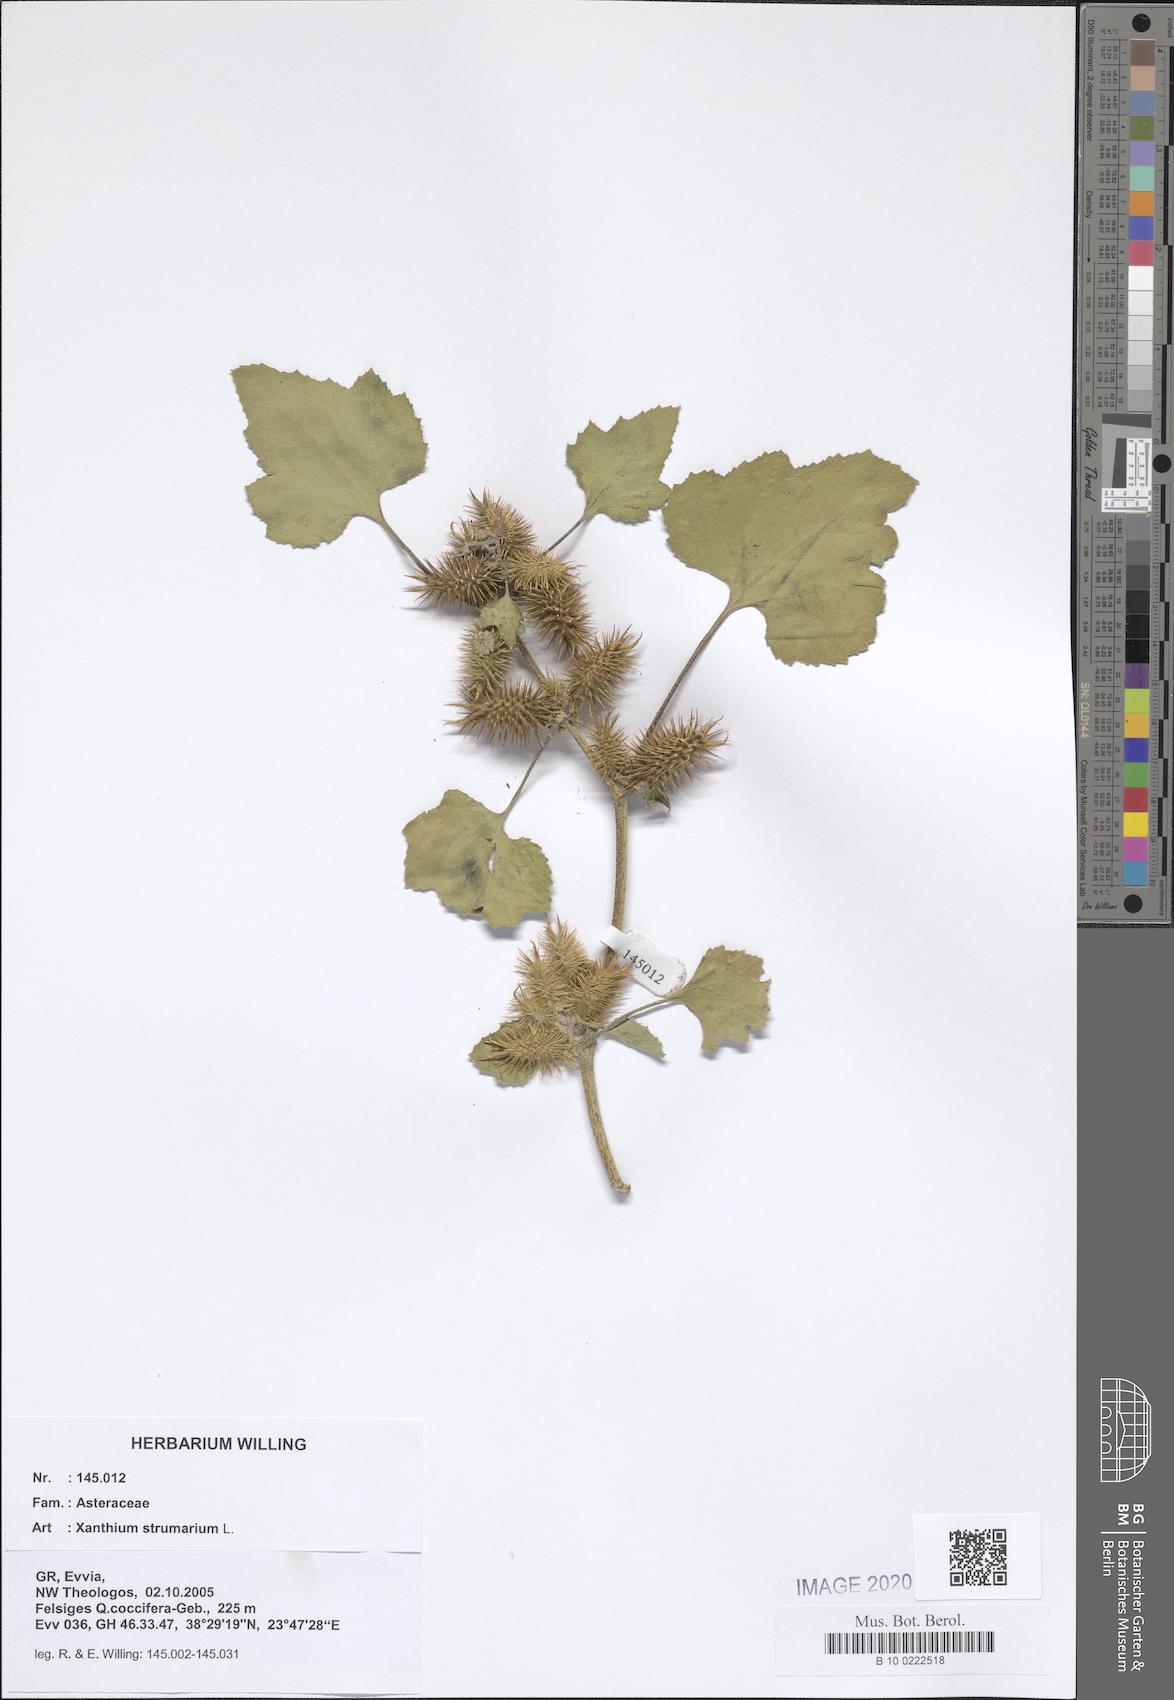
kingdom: Plantae
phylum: Tracheophyta
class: Magnoliopsida
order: Asterales
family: Asteraceae
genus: Xanthium
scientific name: Xanthium strumarium
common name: Rough cocklebur
